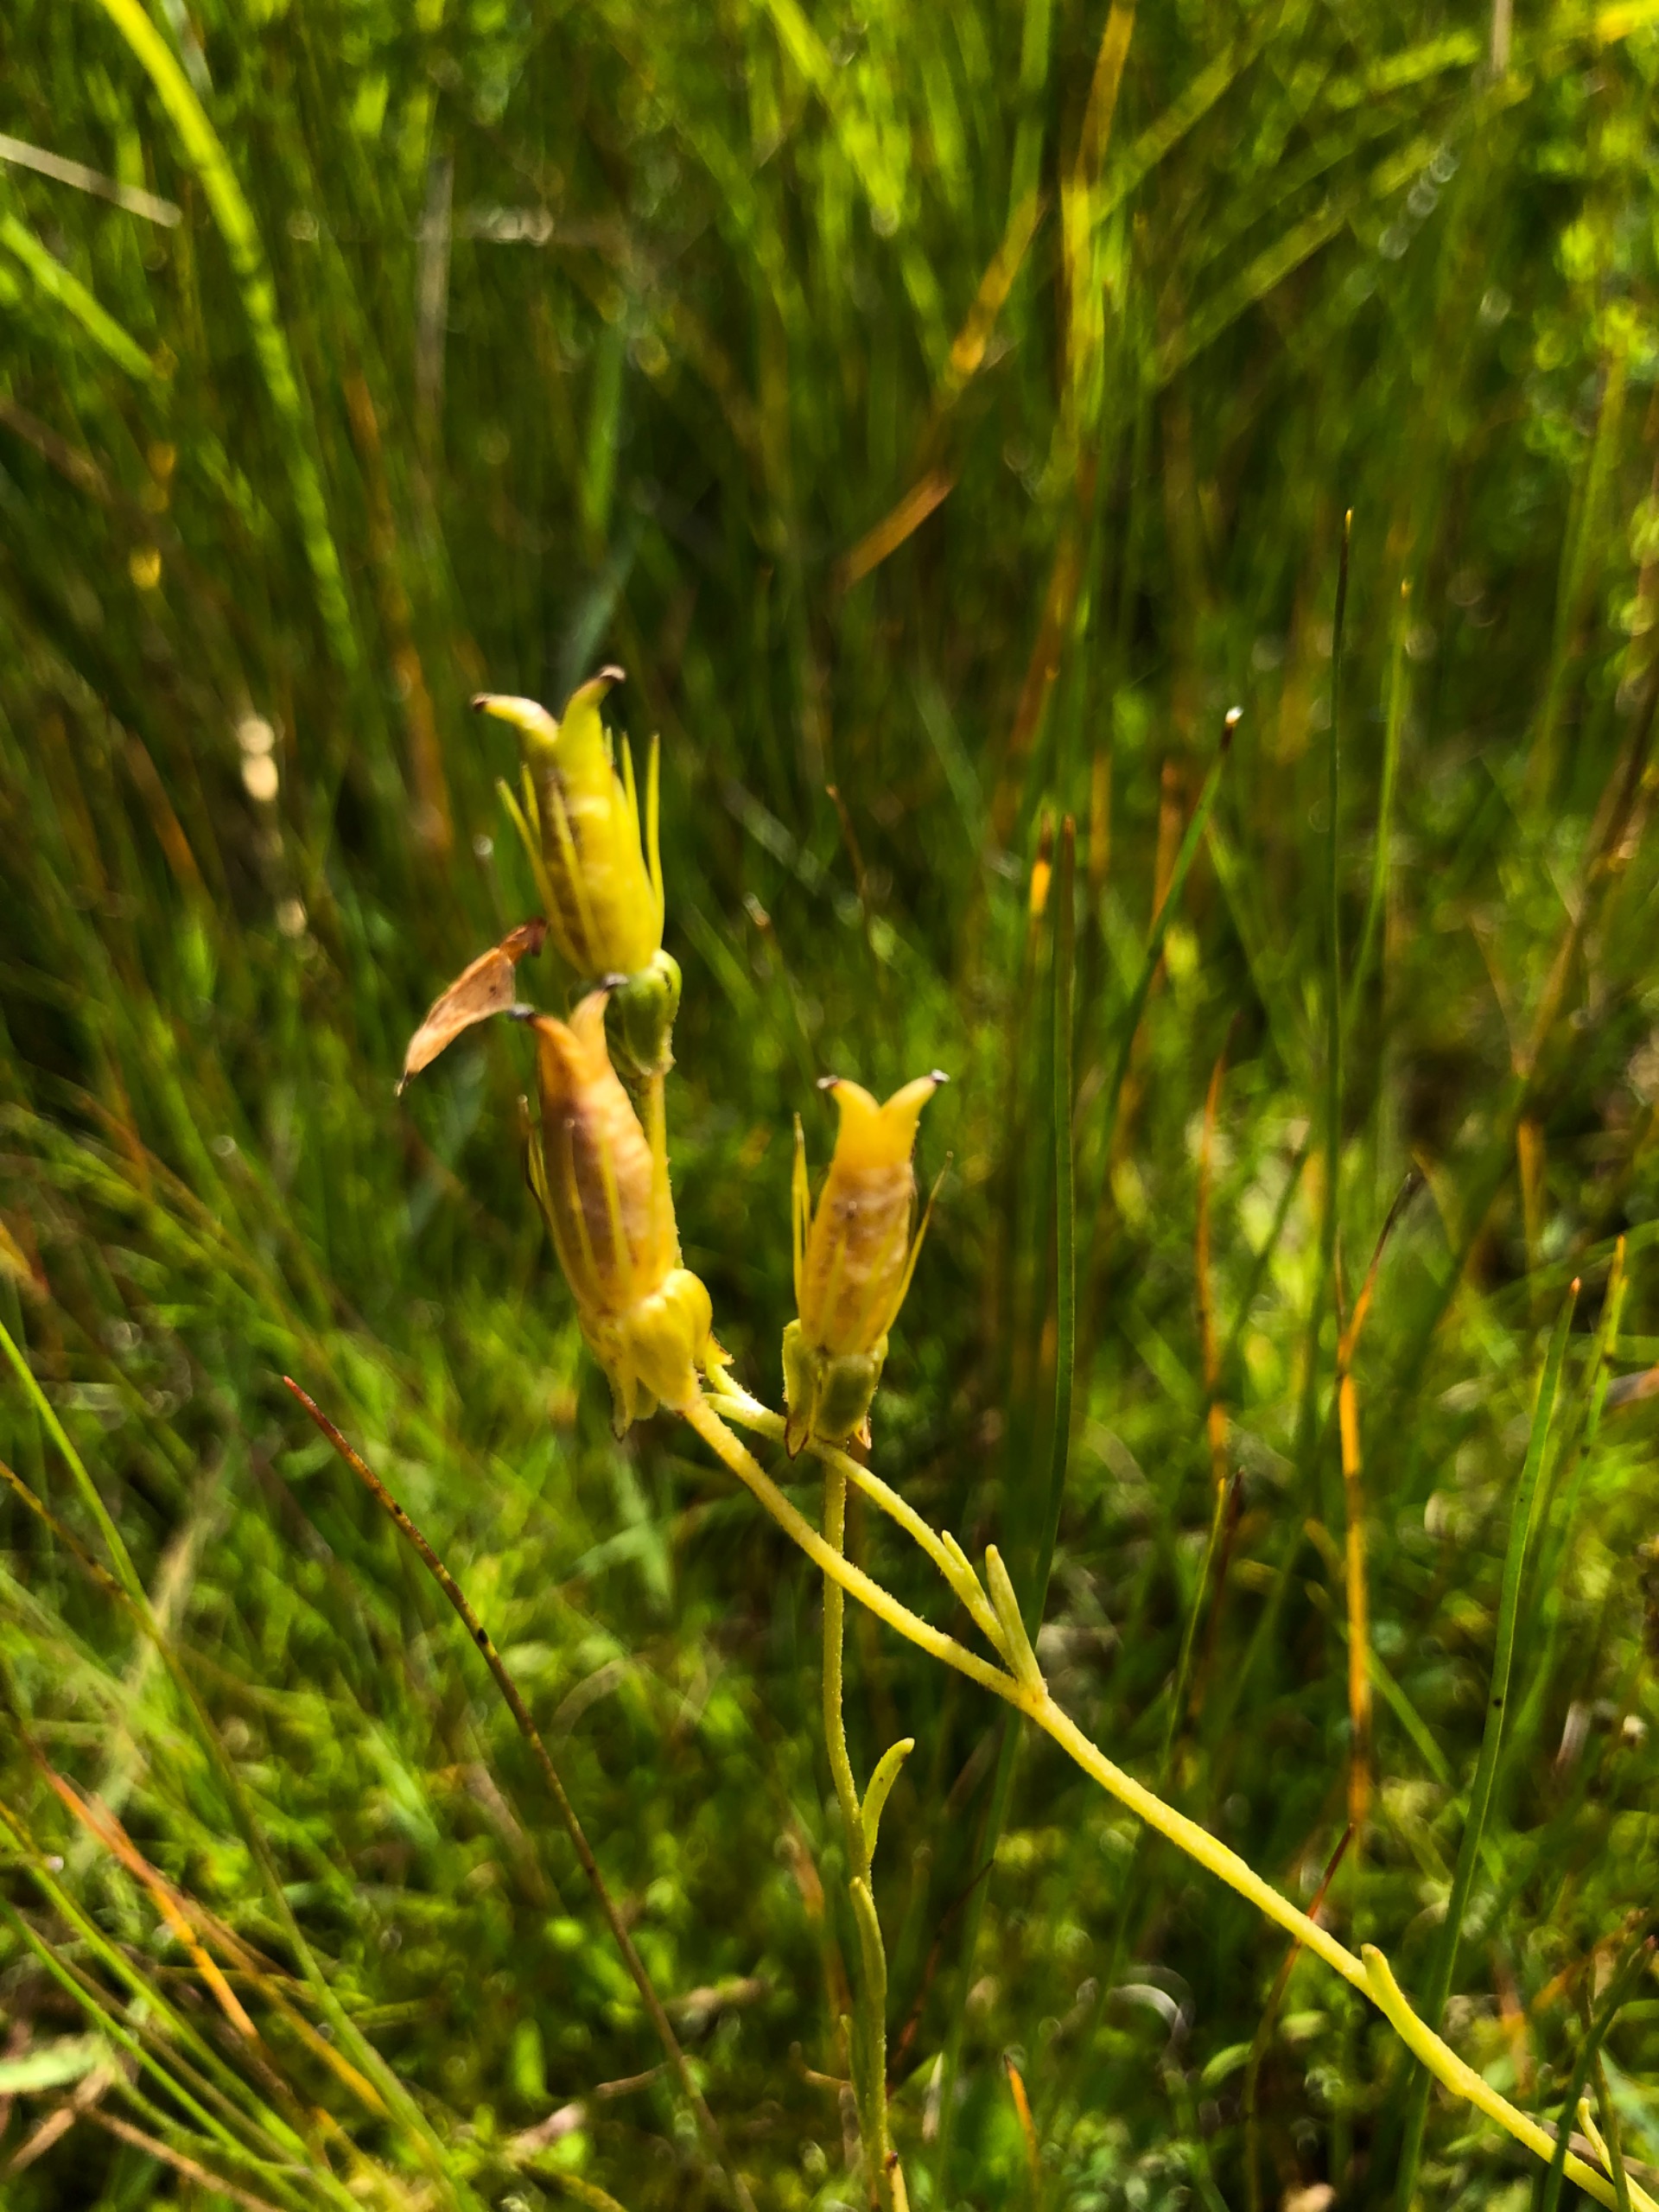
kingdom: Plantae
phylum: Tracheophyta
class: Magnoliopsida
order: Saxifragales
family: Saxifragaceae
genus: Saxifraga
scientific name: Saxifraga hirculus
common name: Gul stenbræk
